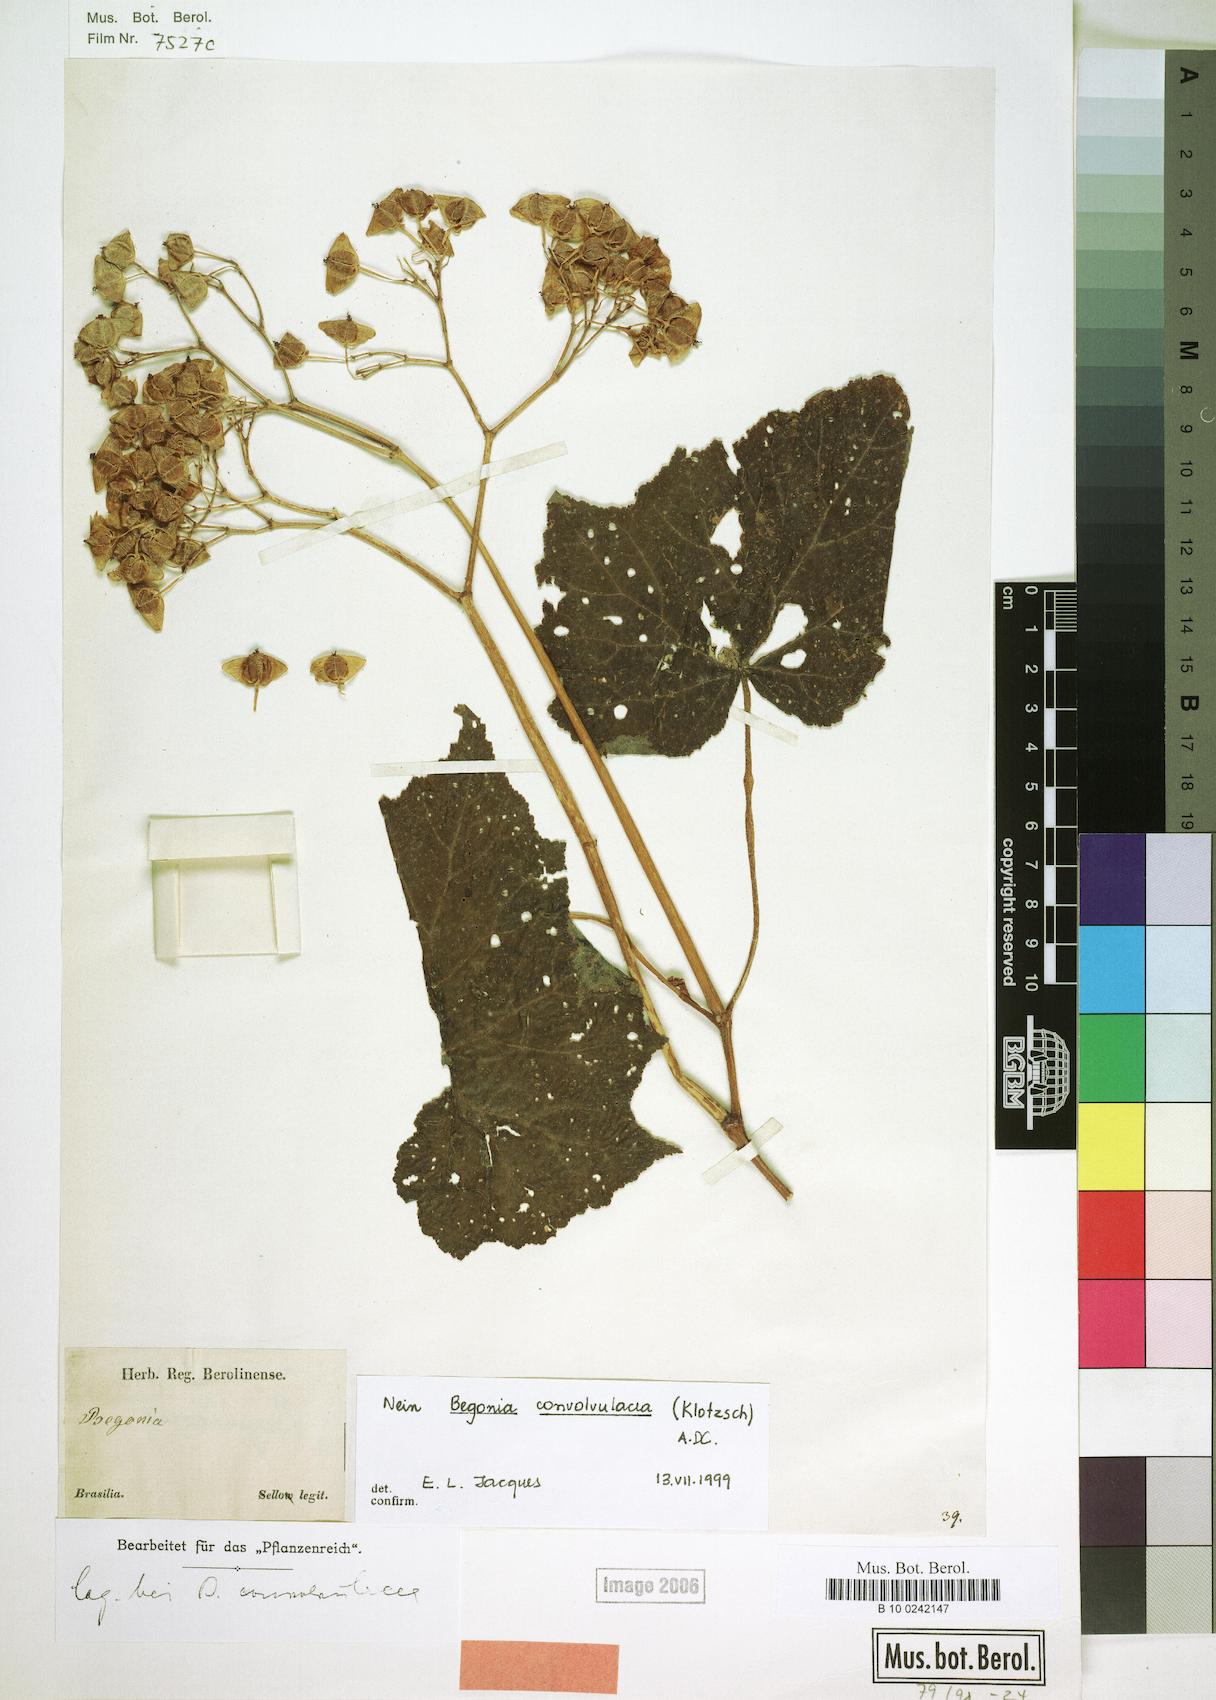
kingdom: Plantae
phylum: Tracheophyta
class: Magnoliopsida
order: Cucurbitales
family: Begoniaceae
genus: Begonia
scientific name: Begonia convolvulacea
